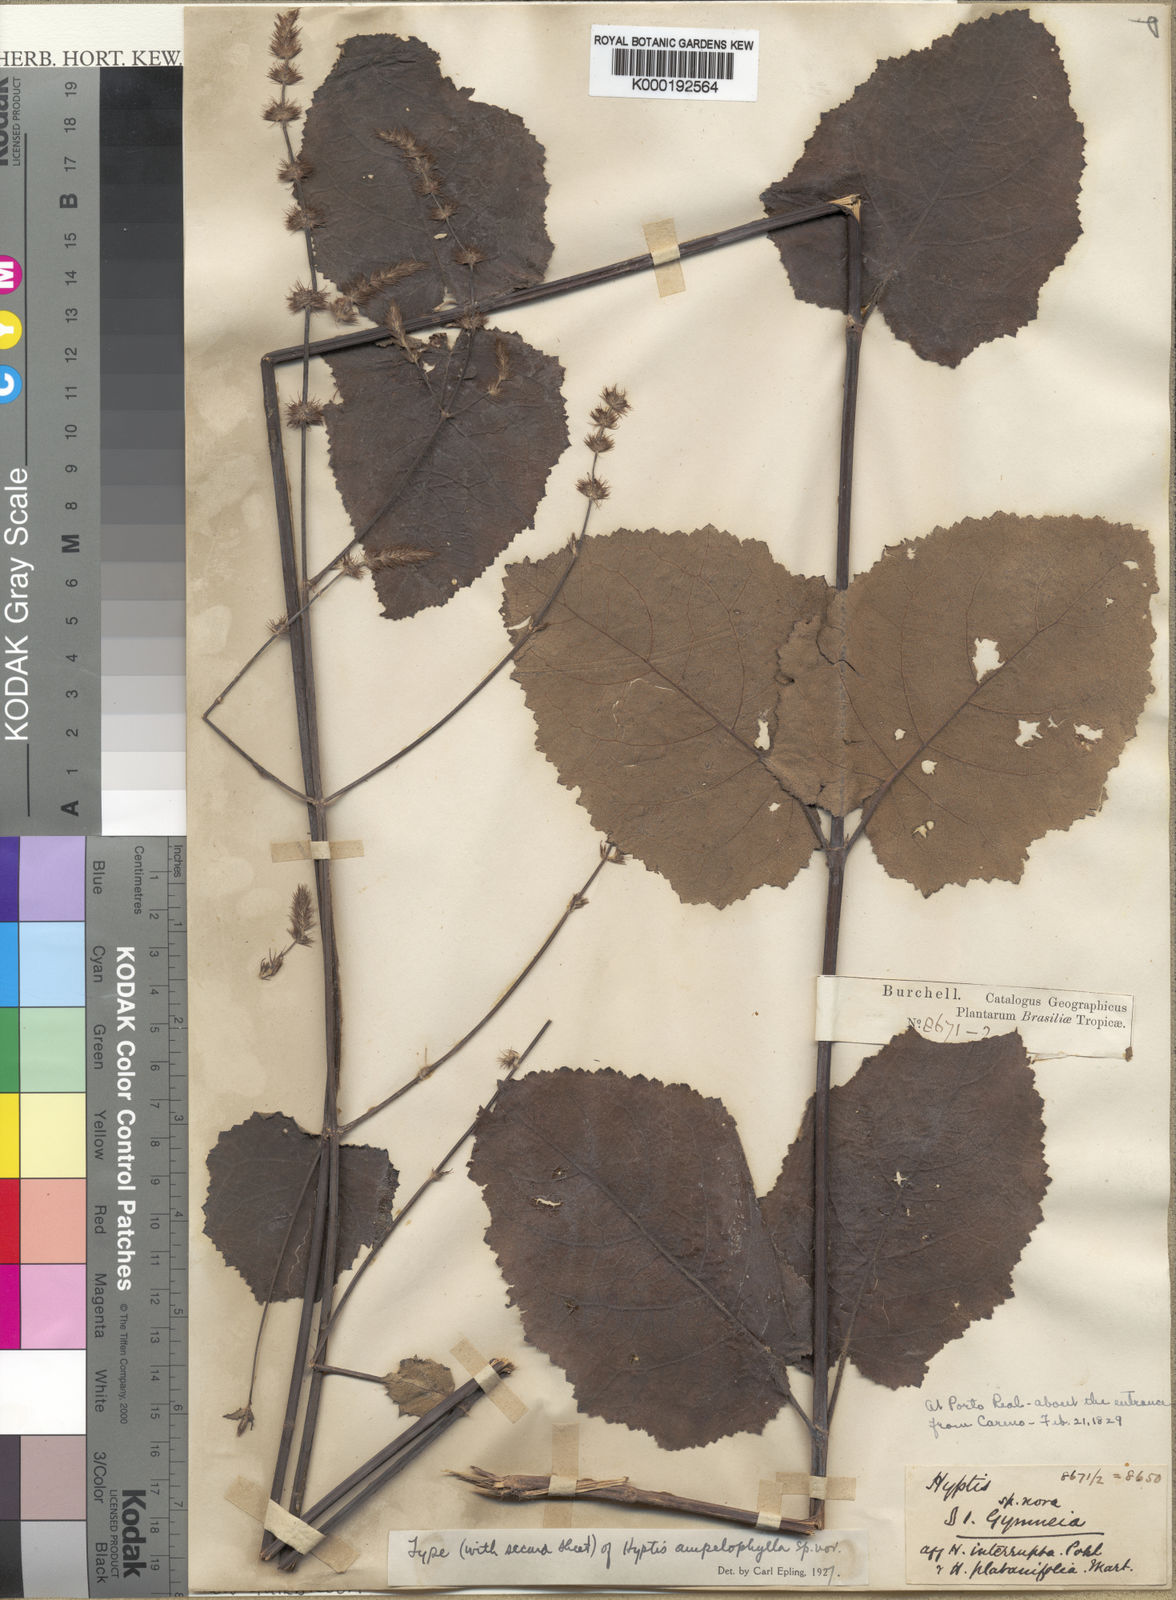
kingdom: Plantae
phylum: Tracheophyta
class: Magnoliopsida
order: Lamiales
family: Lamiaceae
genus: Gymneia
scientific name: Gymneia ampelophylla
